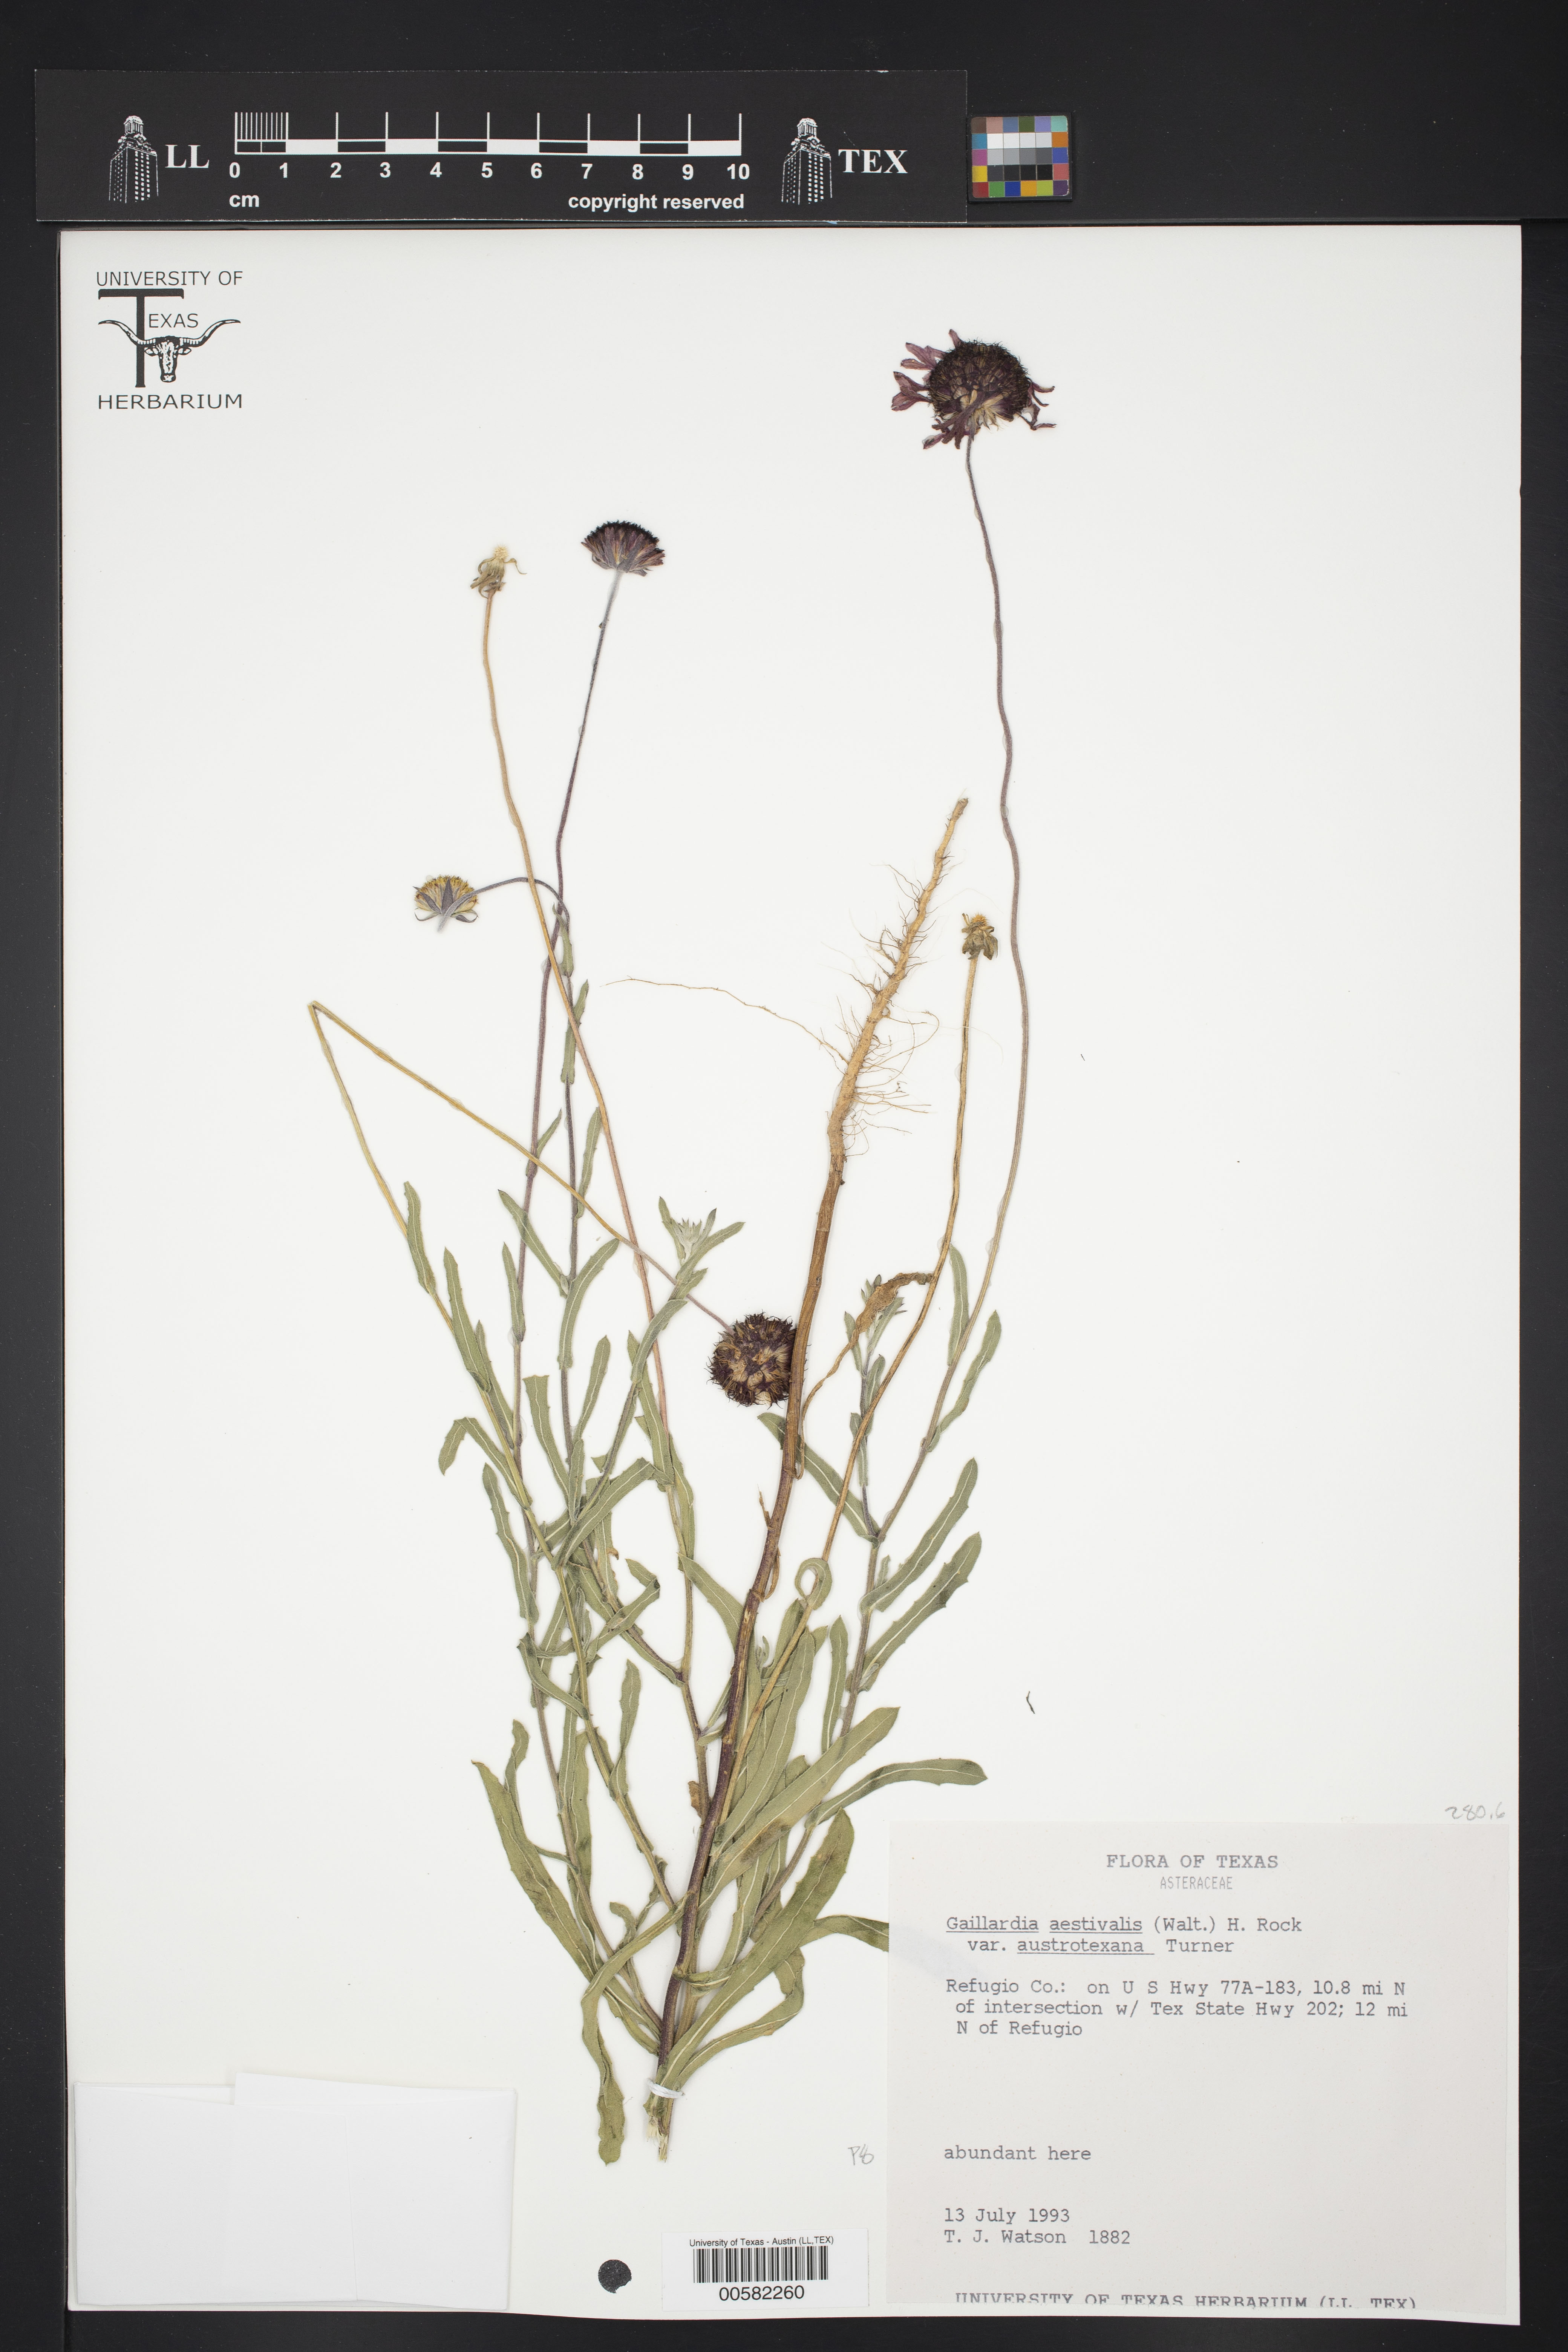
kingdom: Plantae
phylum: Tracheophyta
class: Magnoliopsida
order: Asterales
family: Asteraceae
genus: Gaillardia
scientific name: Gaillardia aestivalis
